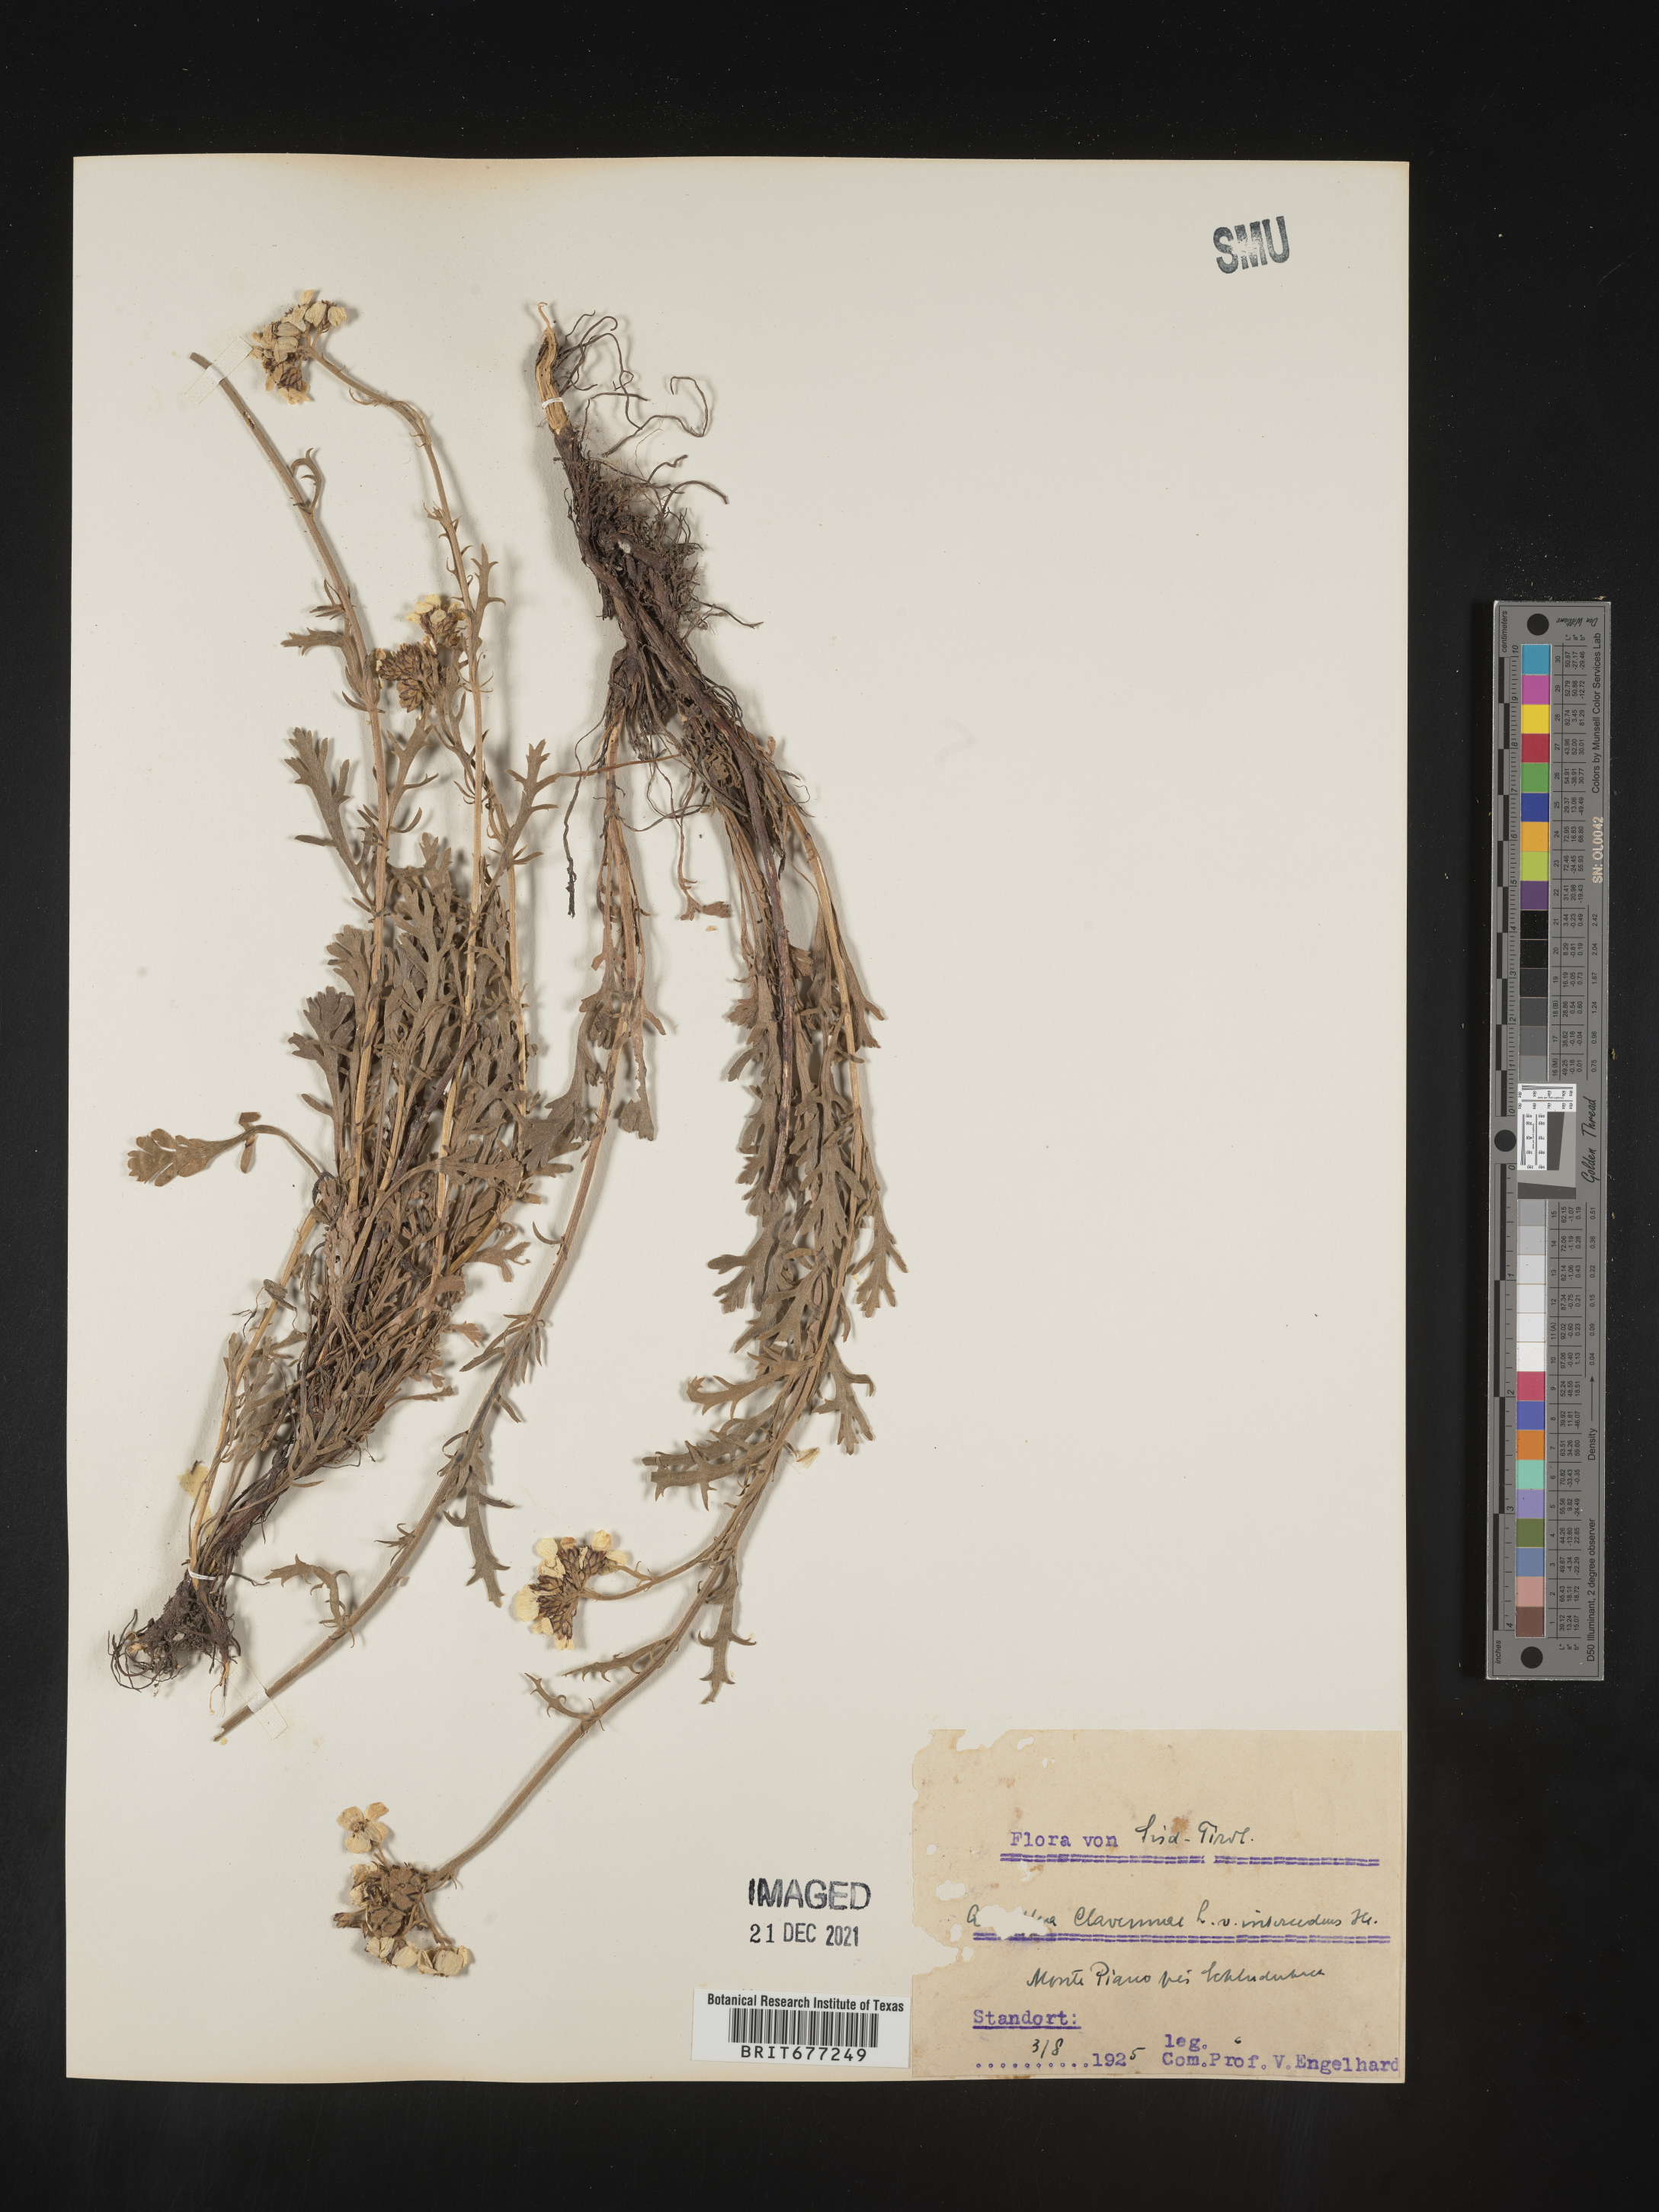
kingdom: Plantae
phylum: Tracheophyta
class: Magnoliopsida
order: Asterales
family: Asteraceae
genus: Achillea
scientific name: Achillea
